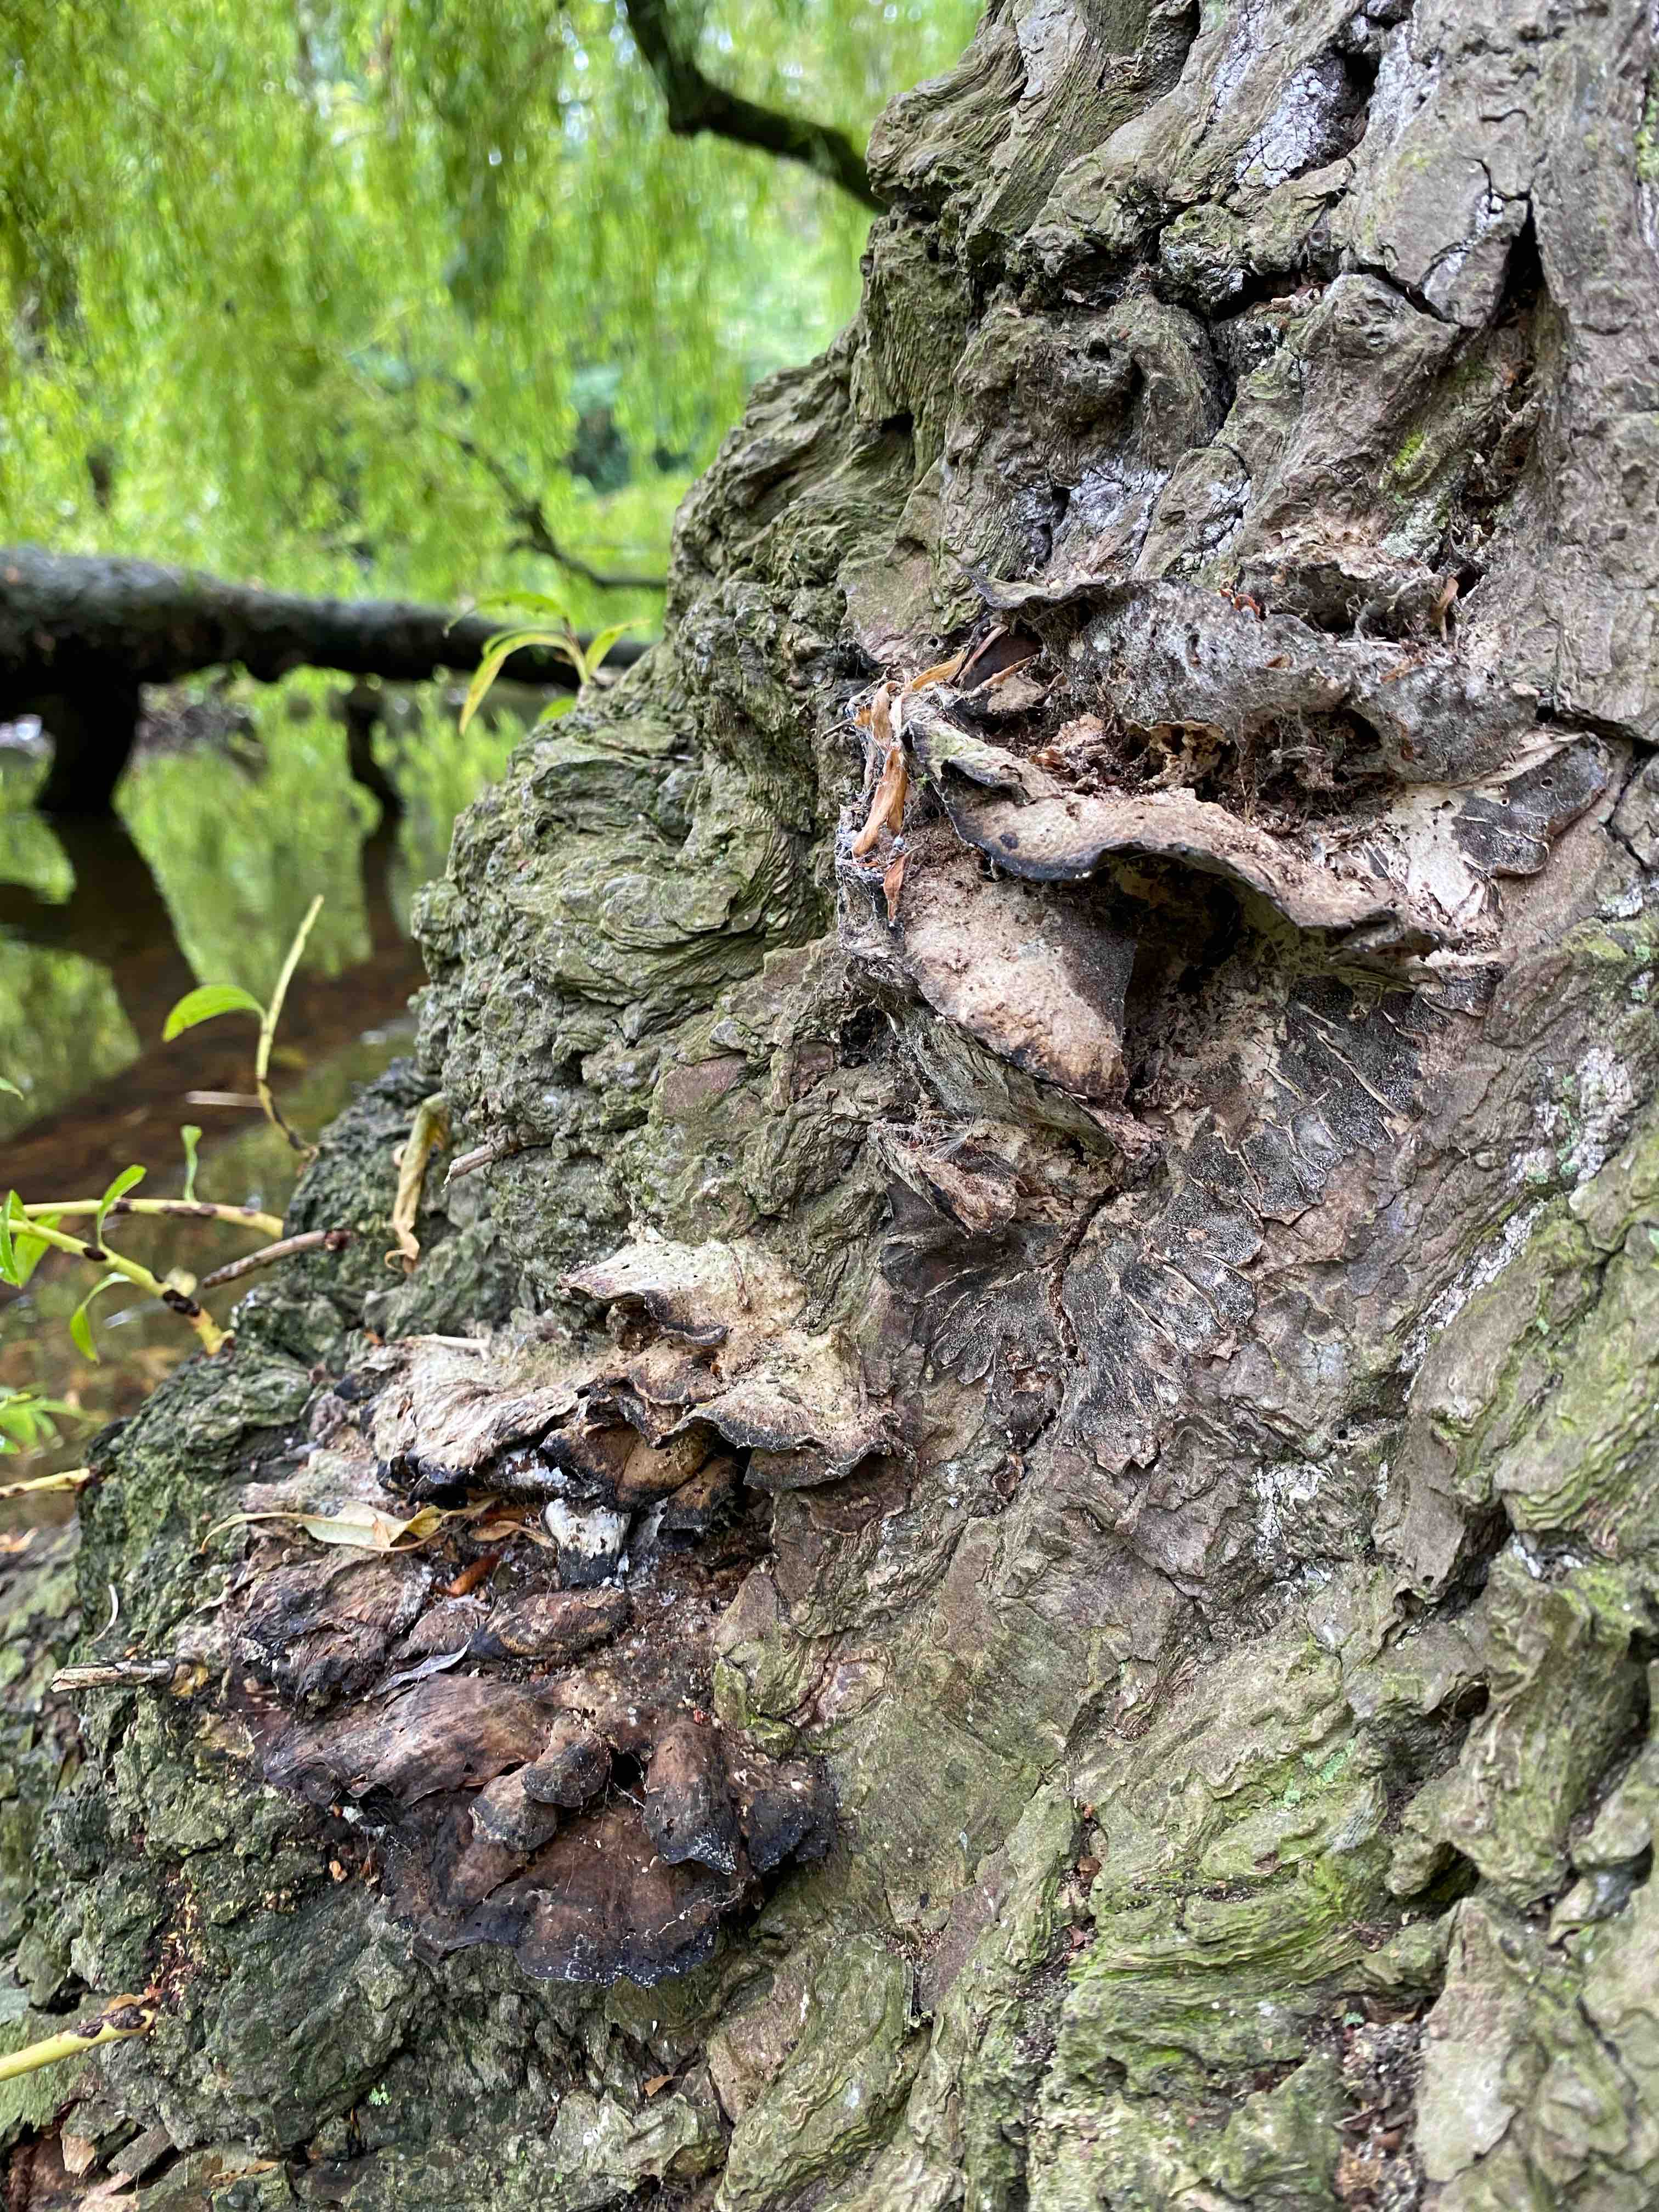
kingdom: Fungi
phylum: Basidiomycota
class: Agaricomycetes
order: Polyporales
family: Phanerochaetaceae
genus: Bjerkandera
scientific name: Bjerkandera adusta
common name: sveden sodporesvamp
